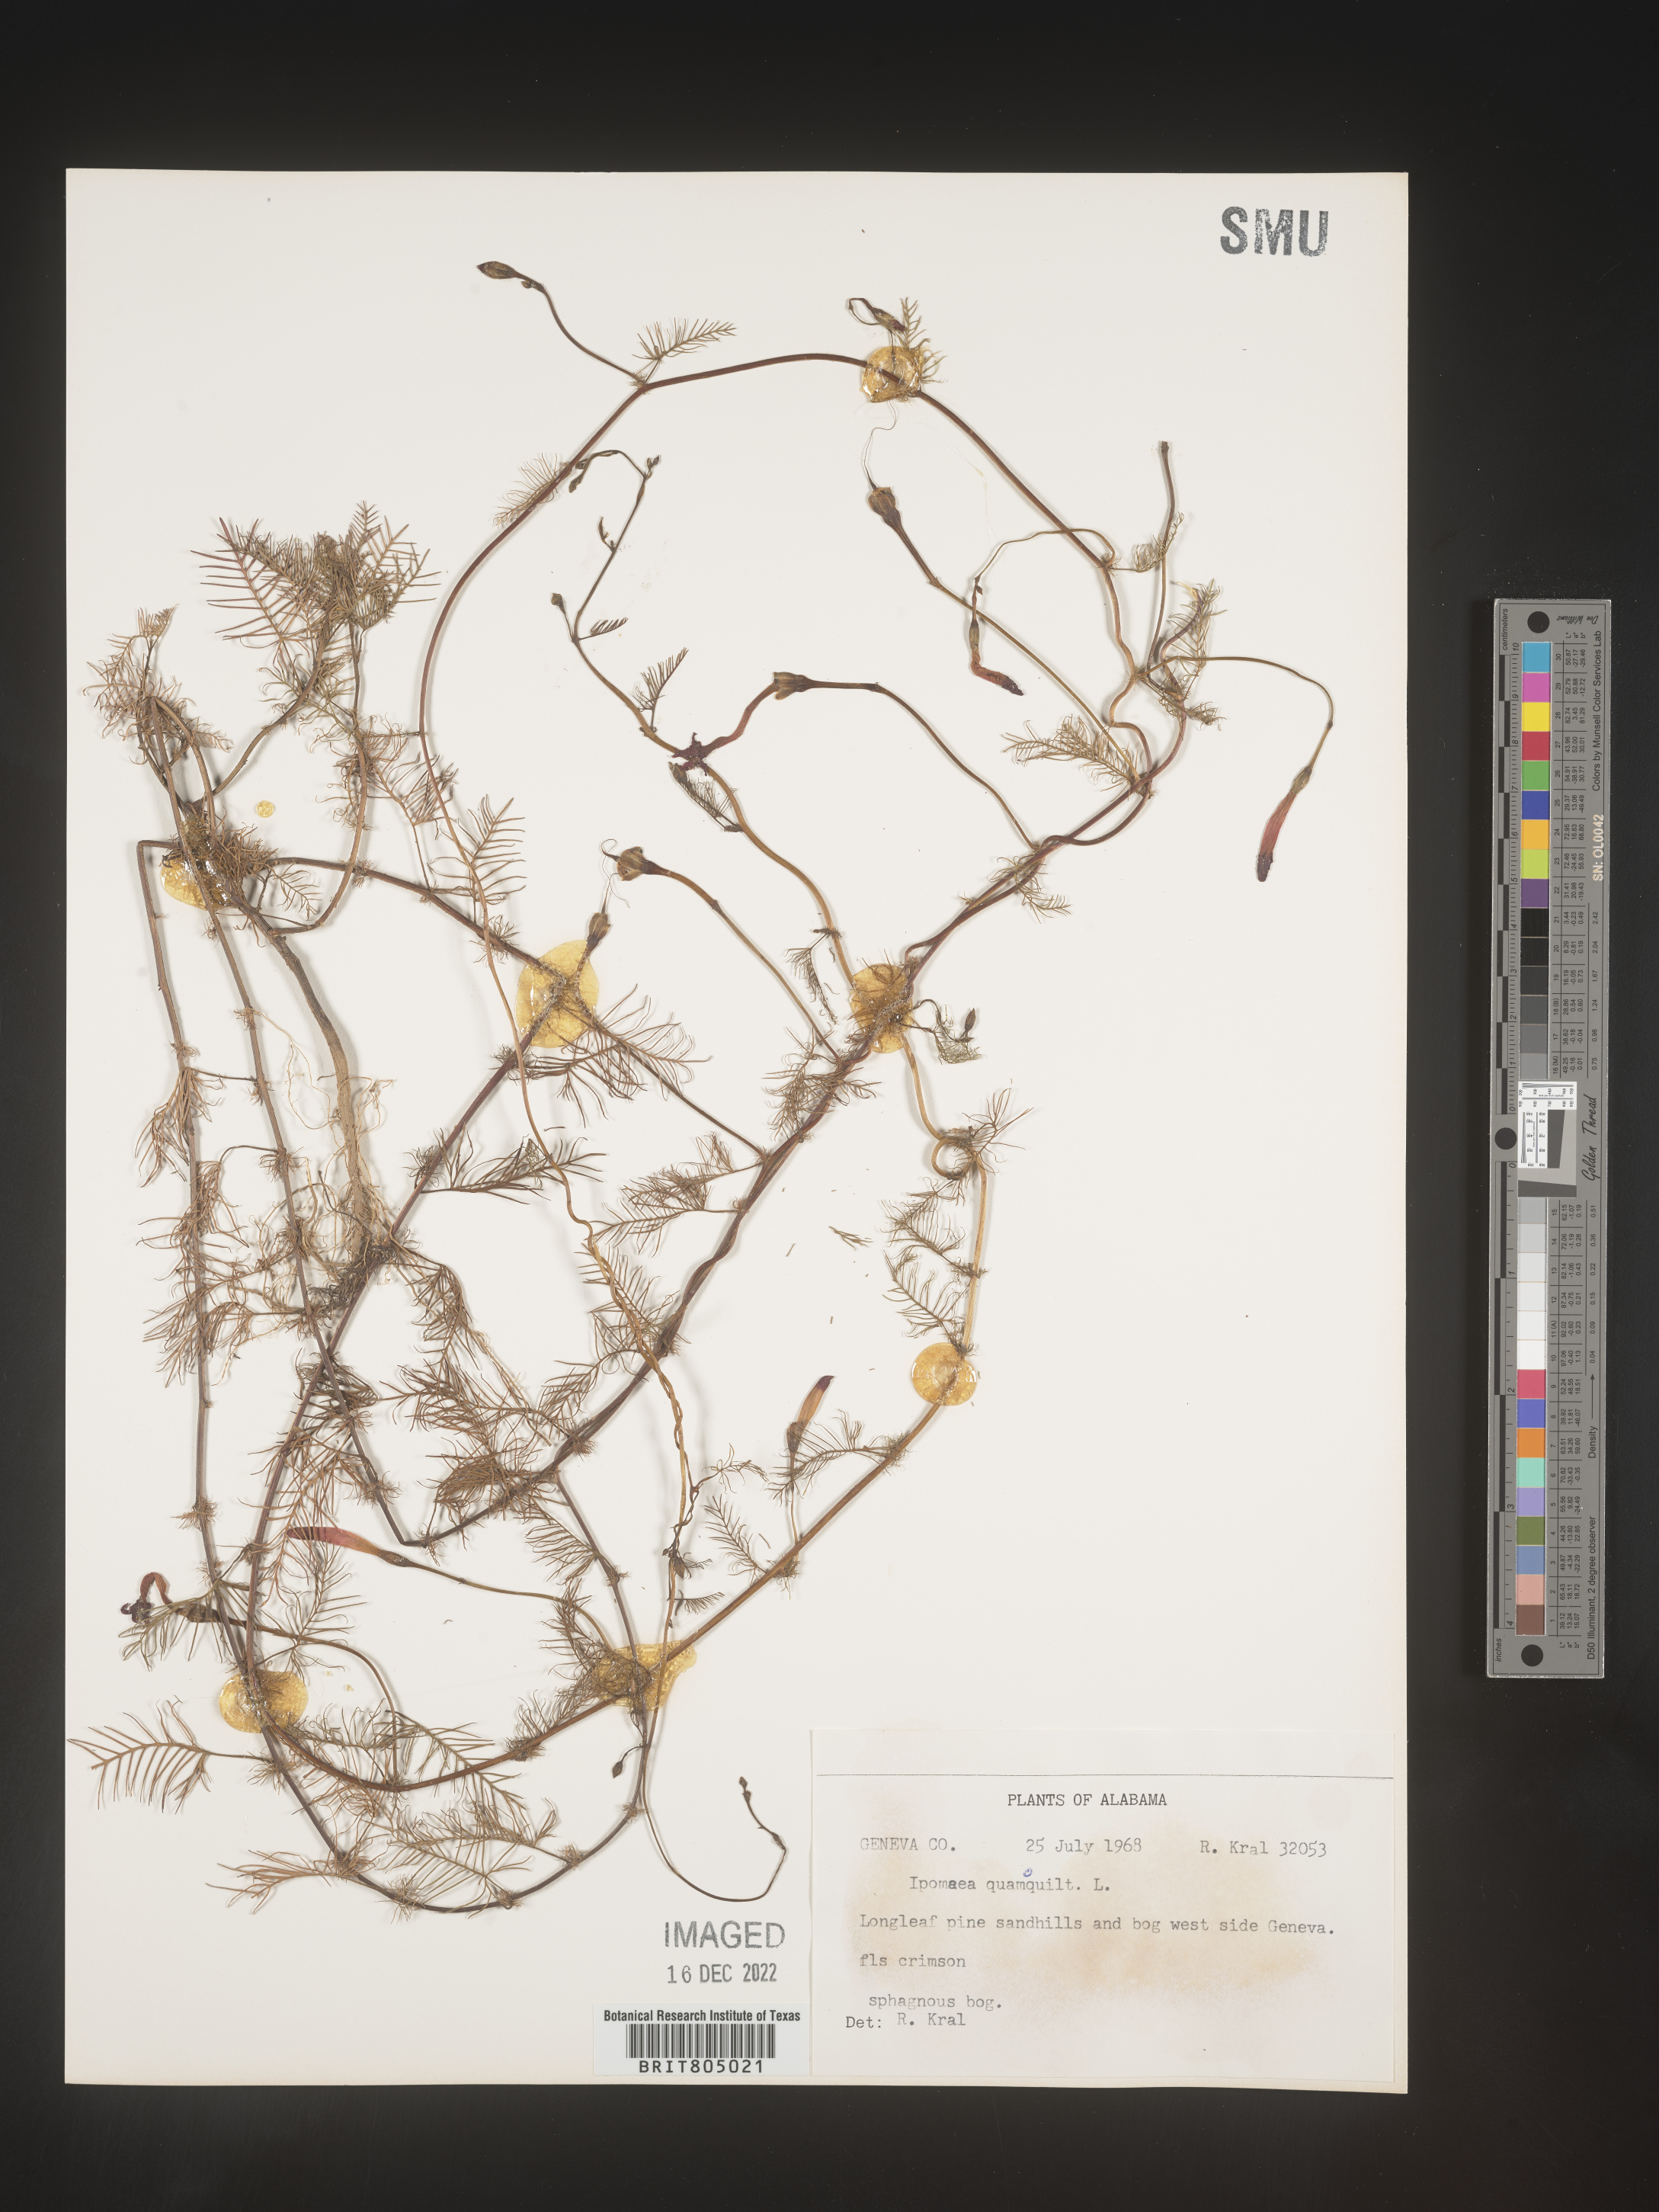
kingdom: Plantae
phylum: Tracheophyta
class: Magnoliopsida
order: Solanales
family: Convolvulaceae
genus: Ipomoea
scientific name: Ipomoea quamoclit
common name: Cypress vine
